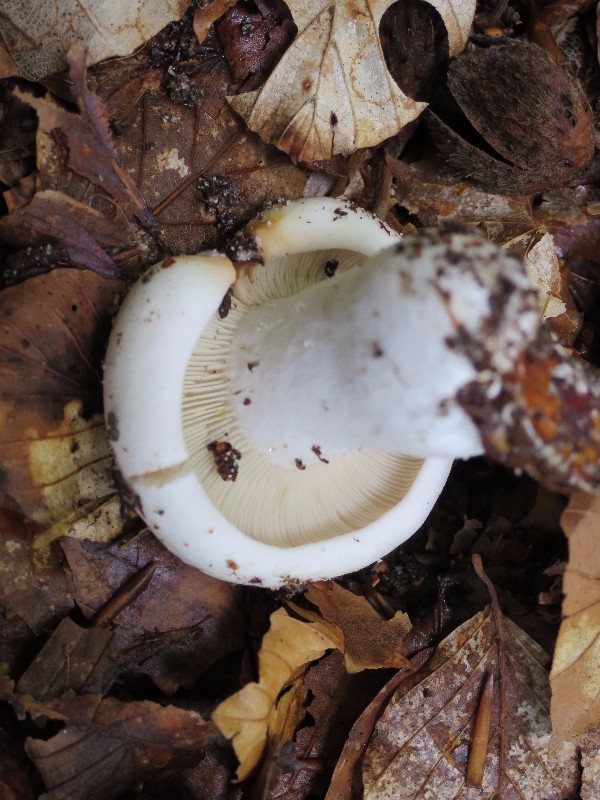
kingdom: Fungi
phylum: Basidiomycota
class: Agaricomycetes
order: Russulales
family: Russulaceae
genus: Russula
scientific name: Russula densifolia
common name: tætbladet skørhat
